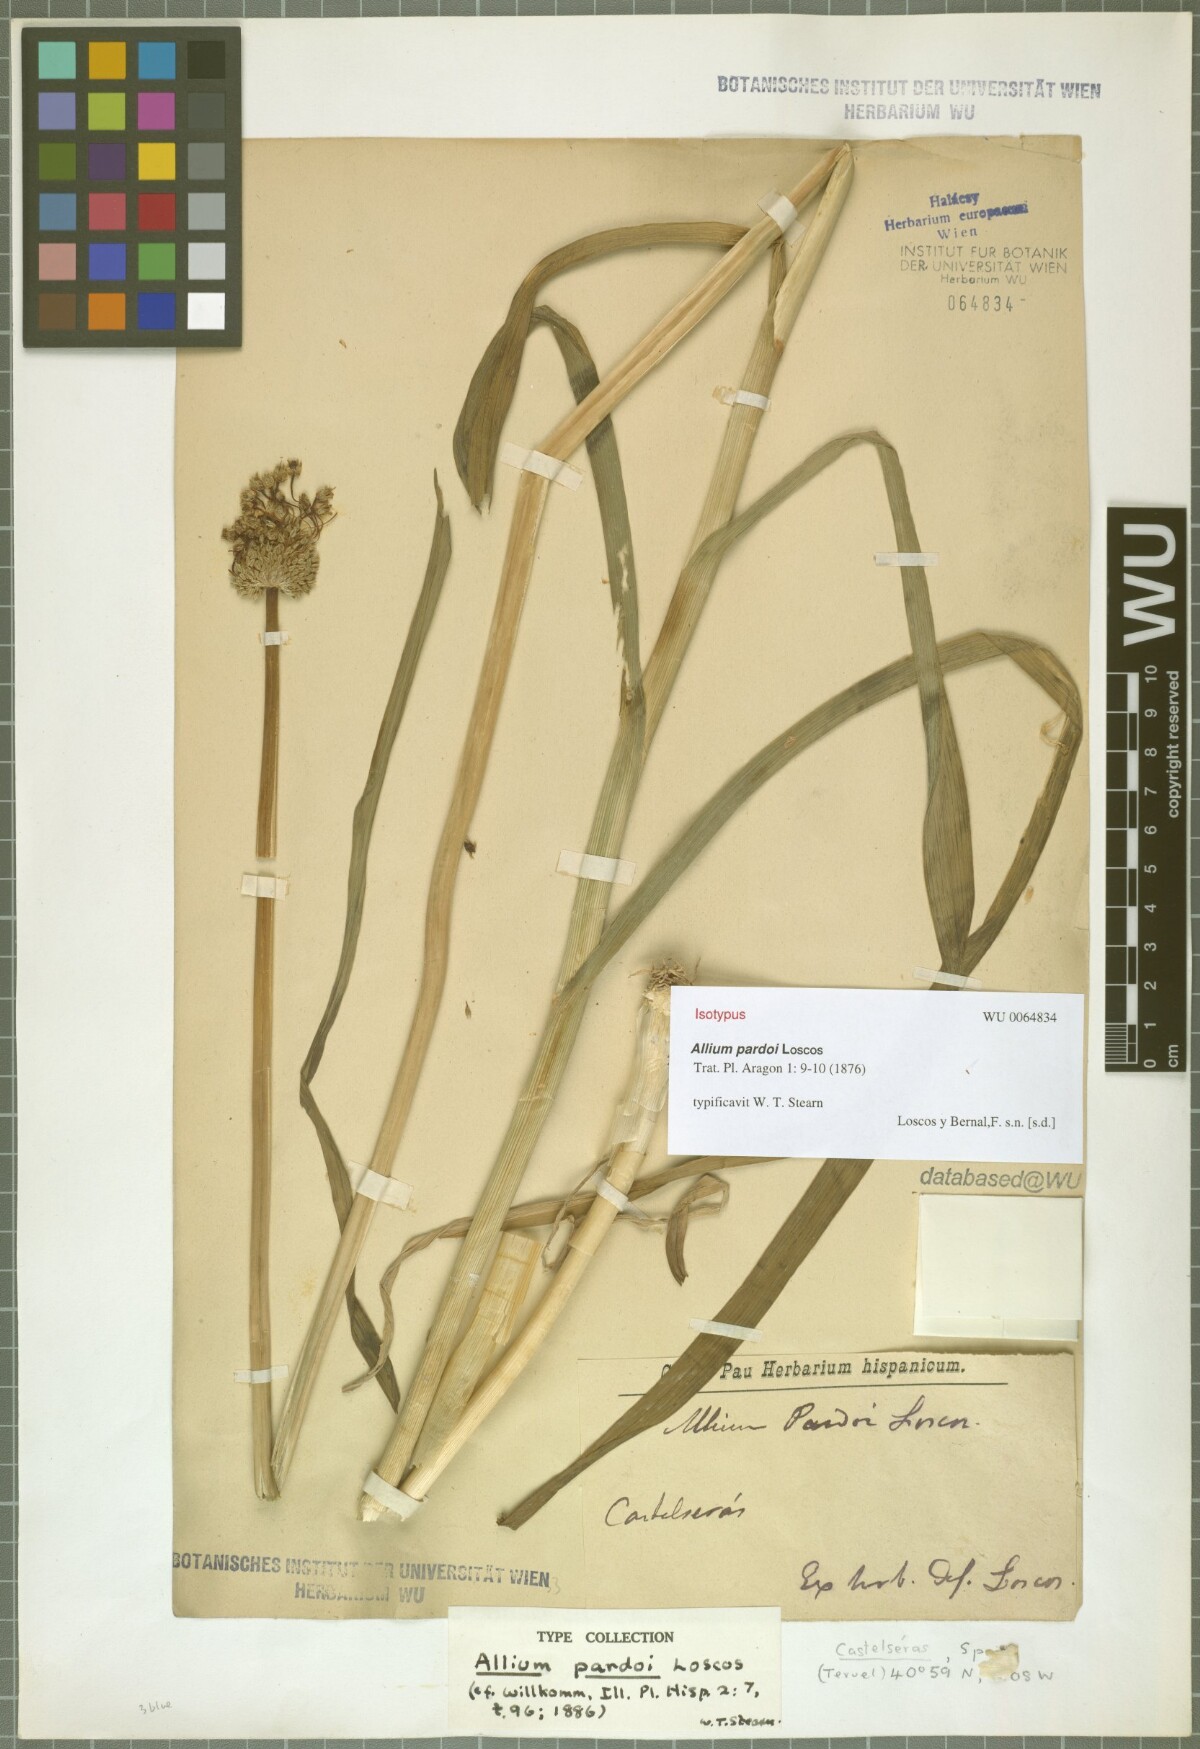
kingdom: Plantae
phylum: Tracheophyta
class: Liliopsida
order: Asparagales
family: Amaryllidaceae
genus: Allium
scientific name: Allium scaberrimum
